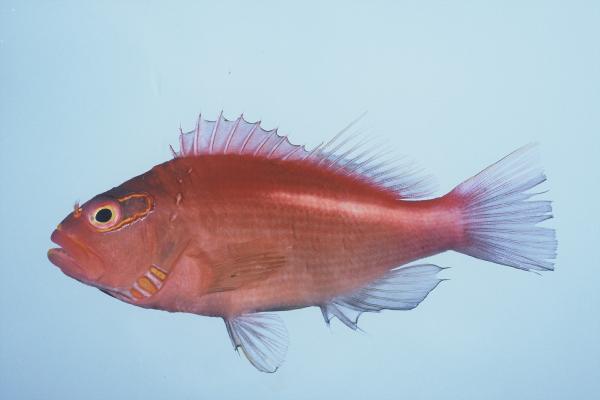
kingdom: Animalia
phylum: Chordata
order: Perciformes
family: Cirrhitidae
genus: Paracirrhites
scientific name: Paracirrhites arcatus
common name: Arc-eye hawkfish
